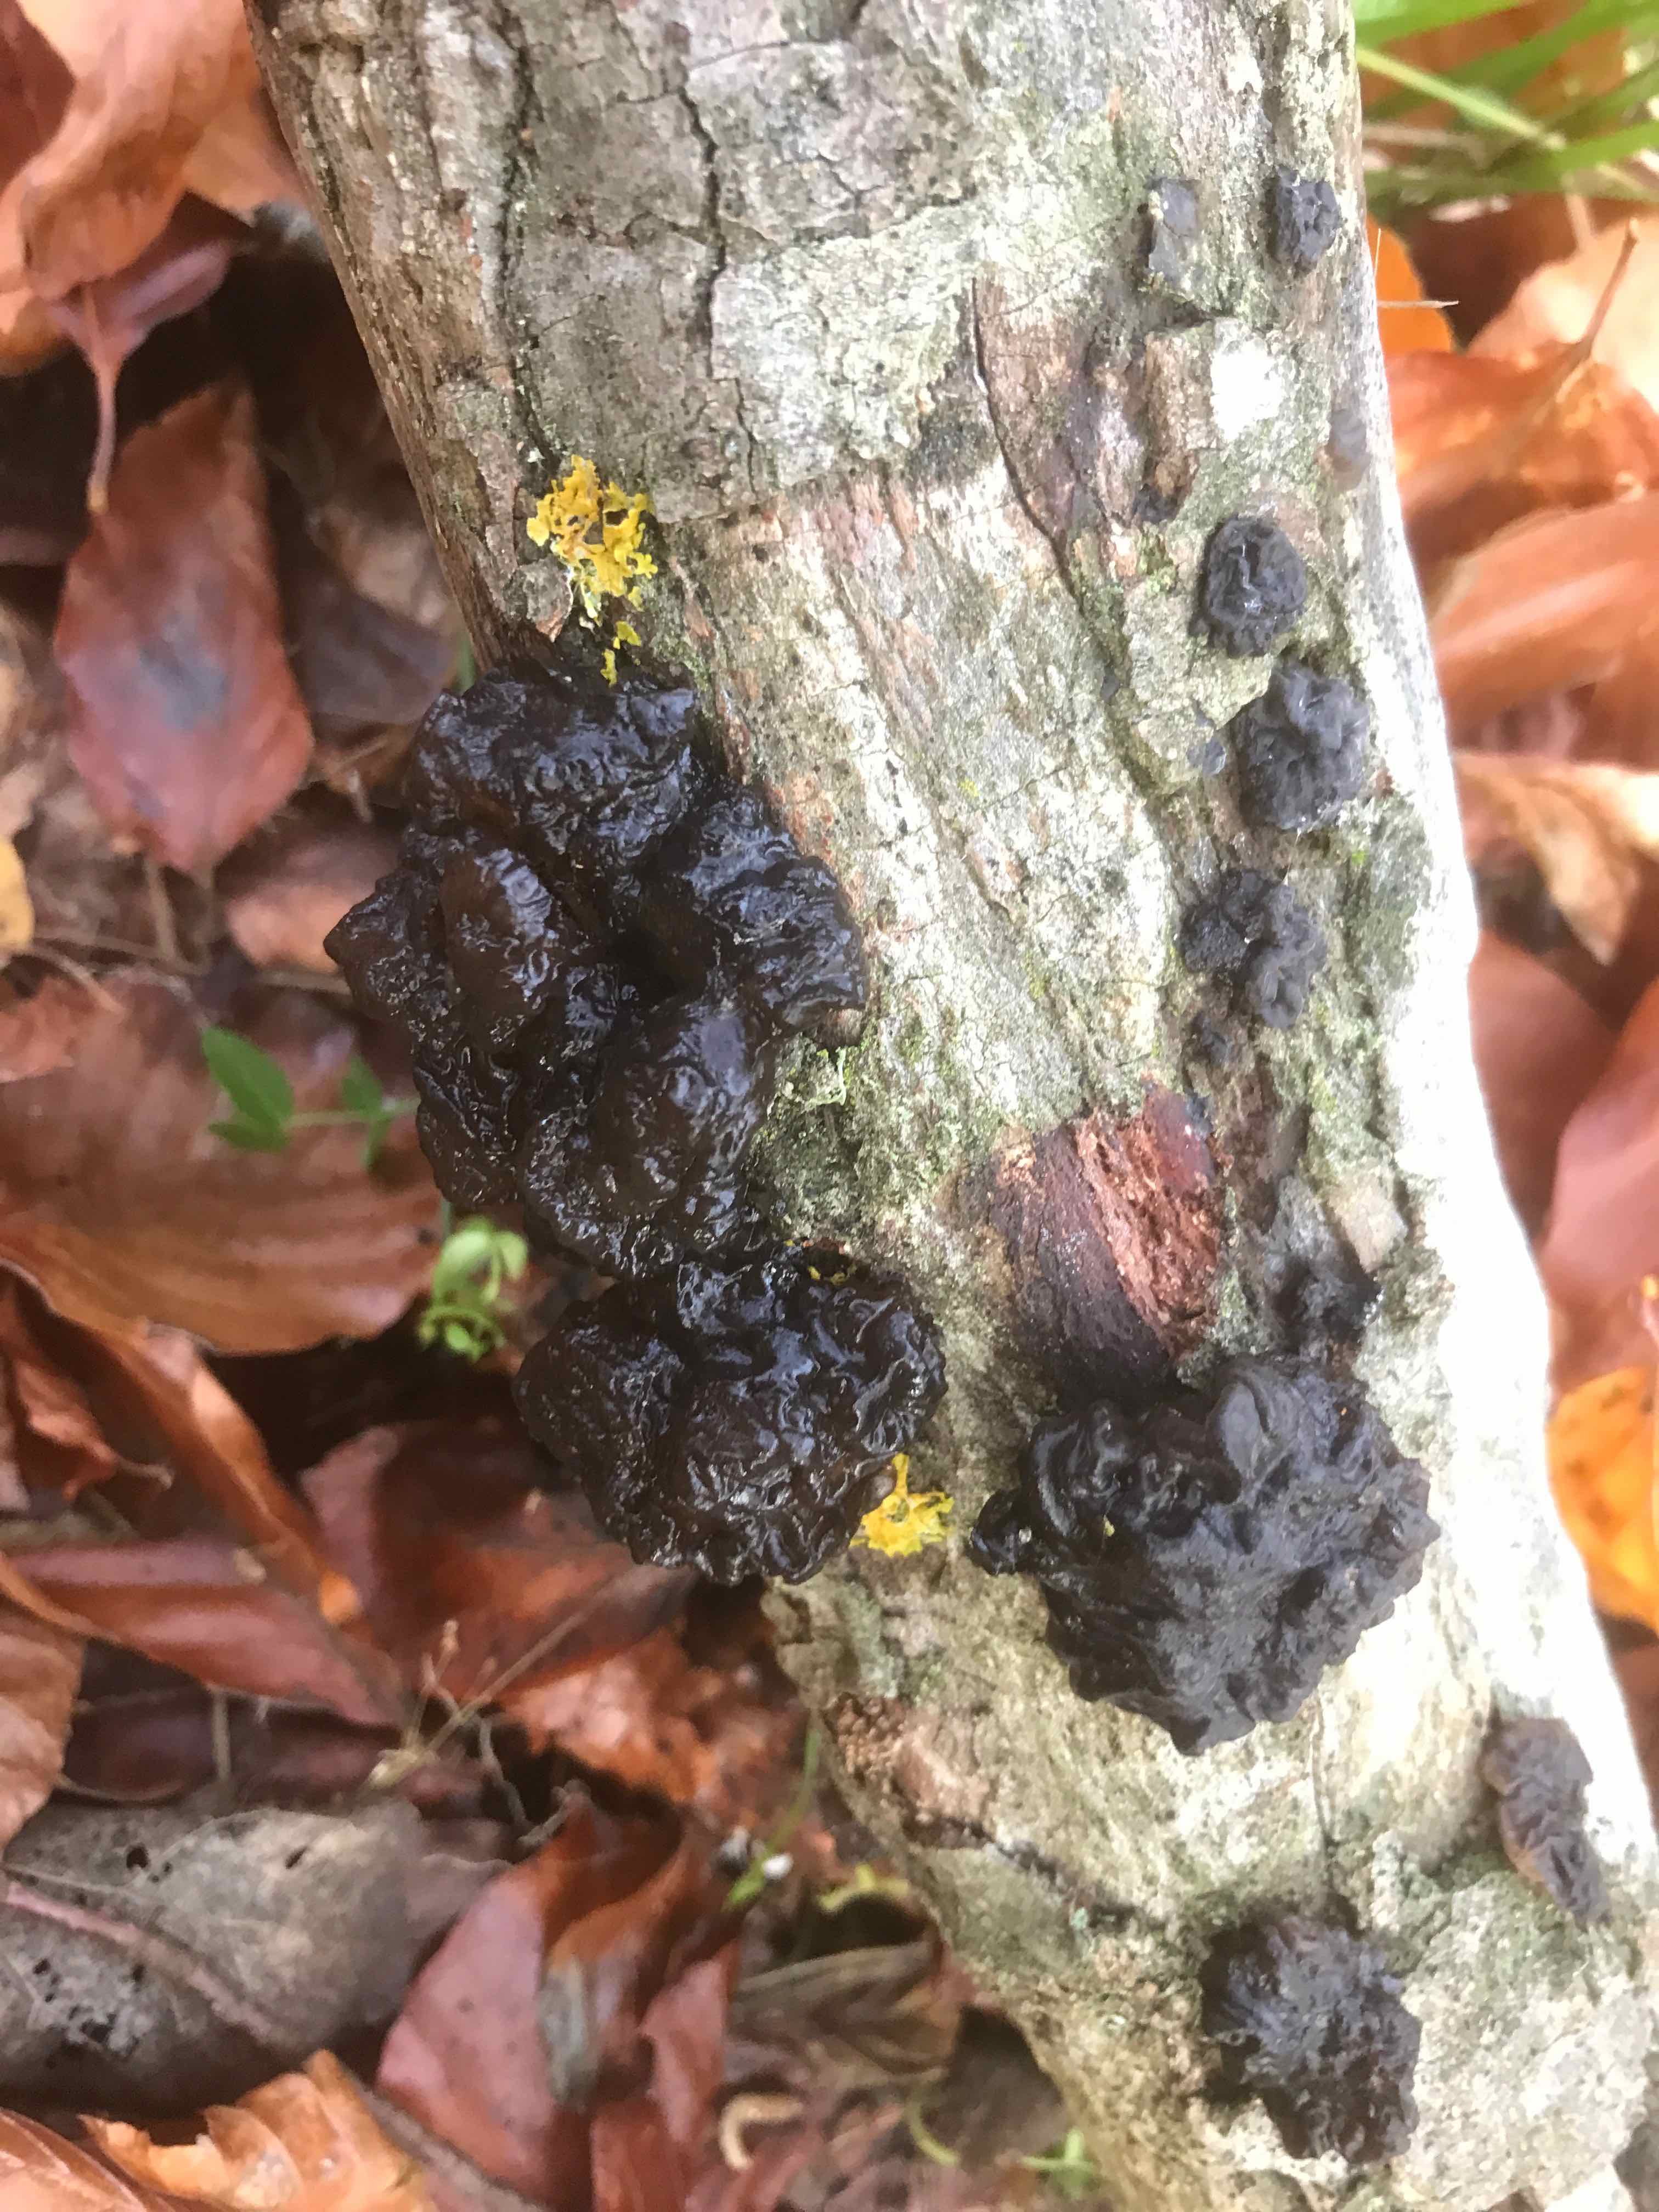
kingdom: Fungi
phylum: Basidiomycota
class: Agaricomycetes
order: Auriculariales
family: Auriculariaceae
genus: Exidia
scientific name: Exidia nigricans
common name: almindelig bævretop
